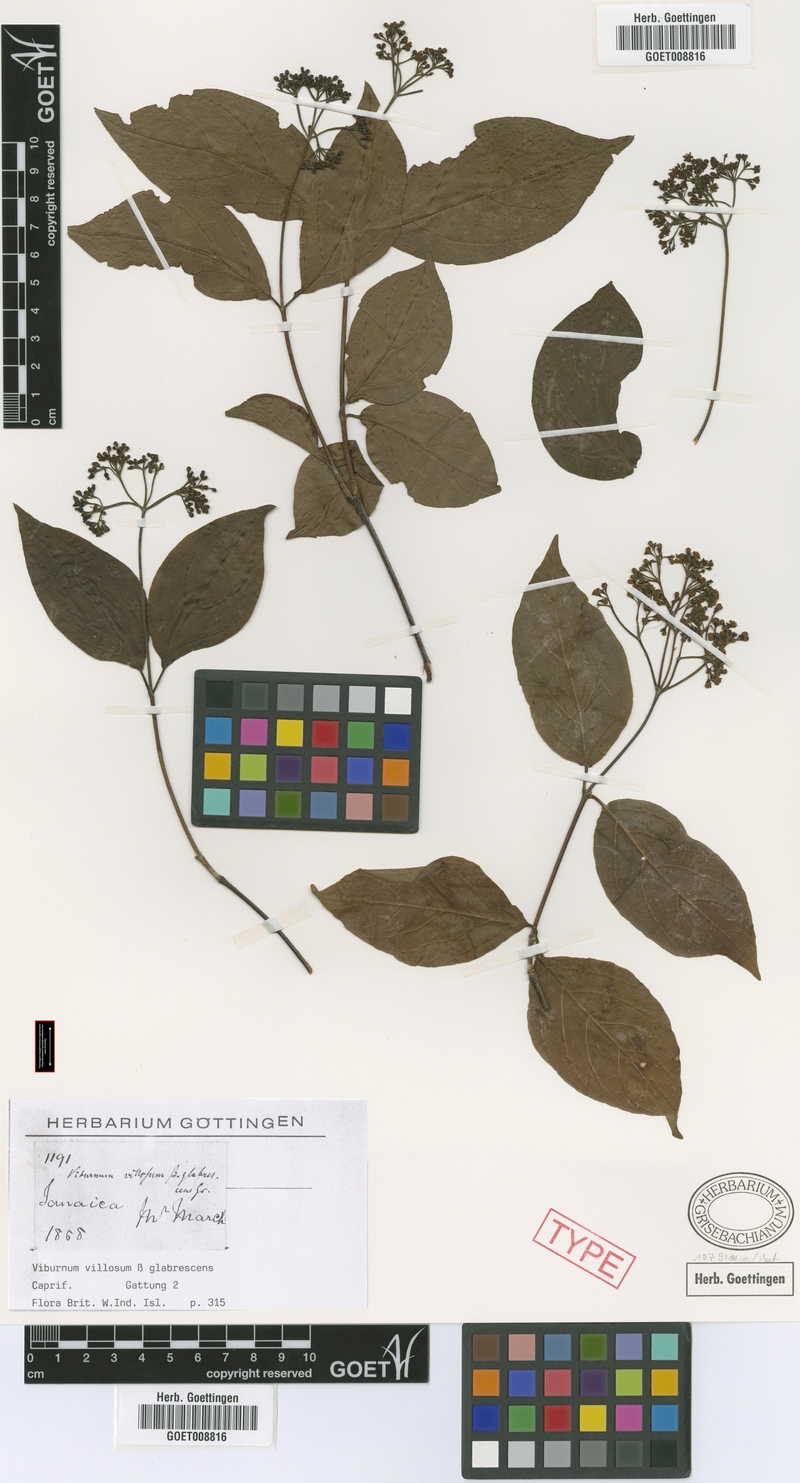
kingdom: Plantae
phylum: Tracheophyta
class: Magnoliopsida
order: Dipsacales
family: Viburnaceae
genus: Viburnum
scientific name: Viburnum villosum
